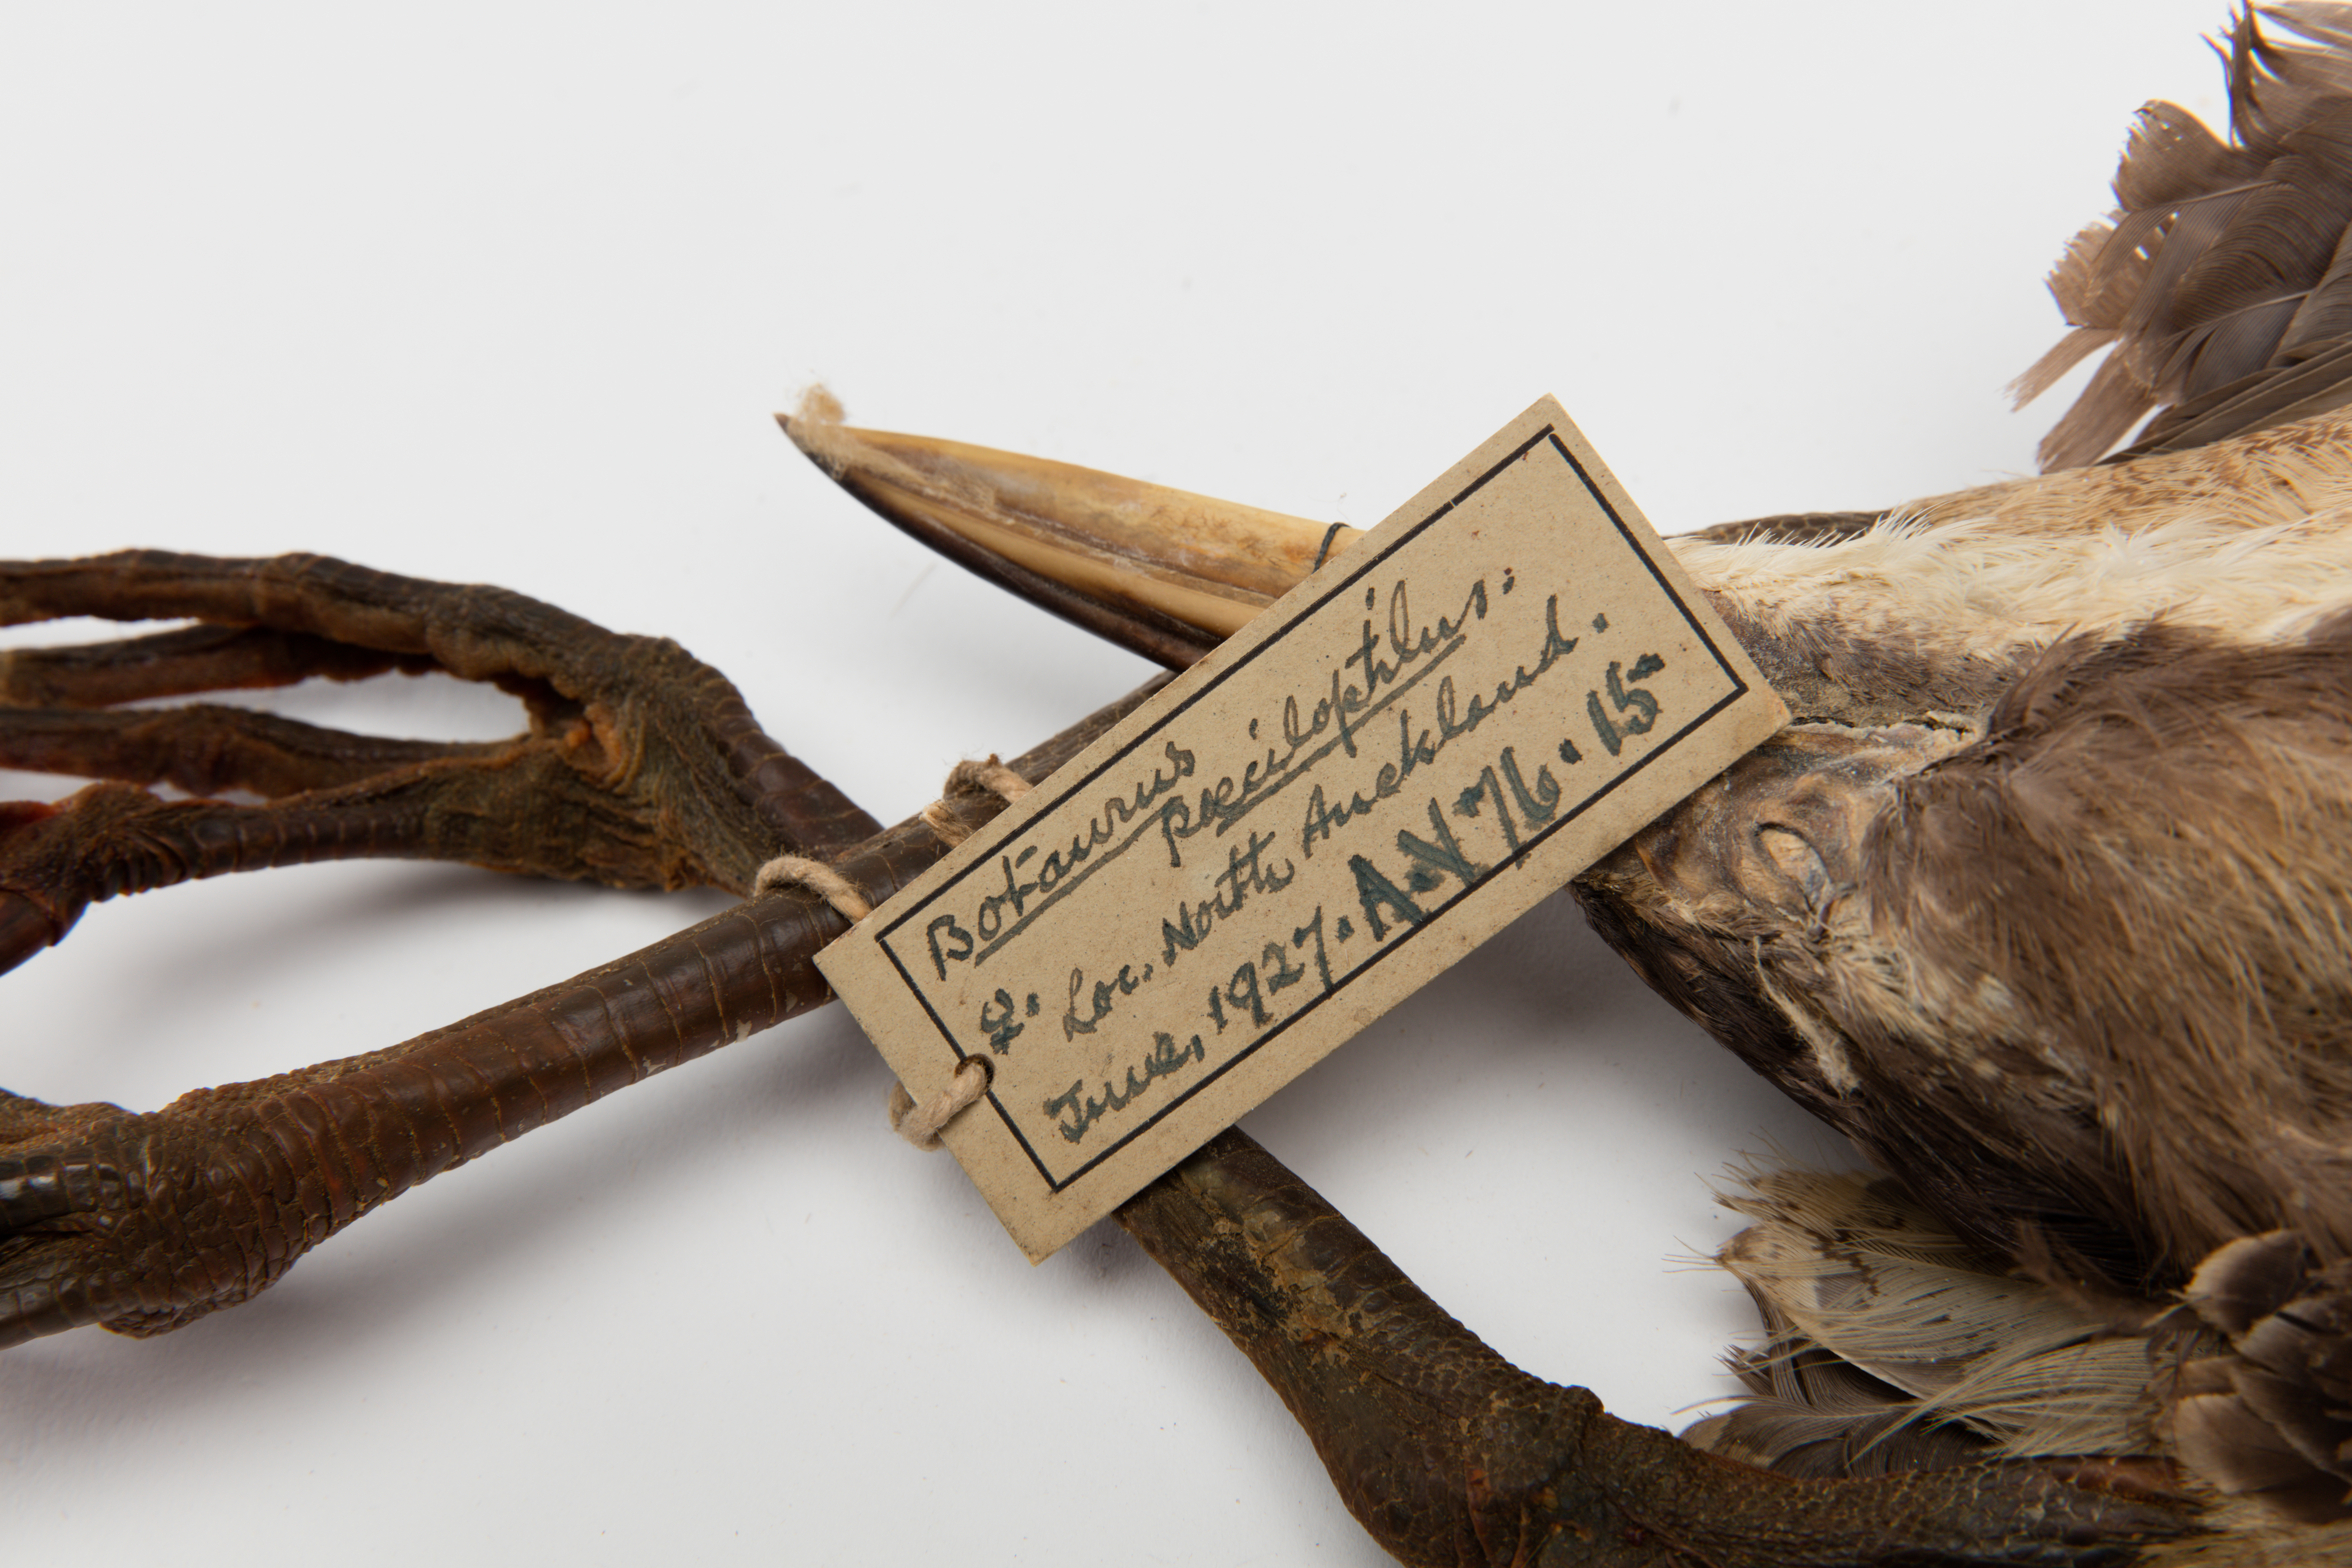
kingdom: Animalia
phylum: Chordata
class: Aves
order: Pelecaniformes
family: Ardeidae
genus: Botaurus
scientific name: Botaurus poiciloptilus
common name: Australasian bittern
